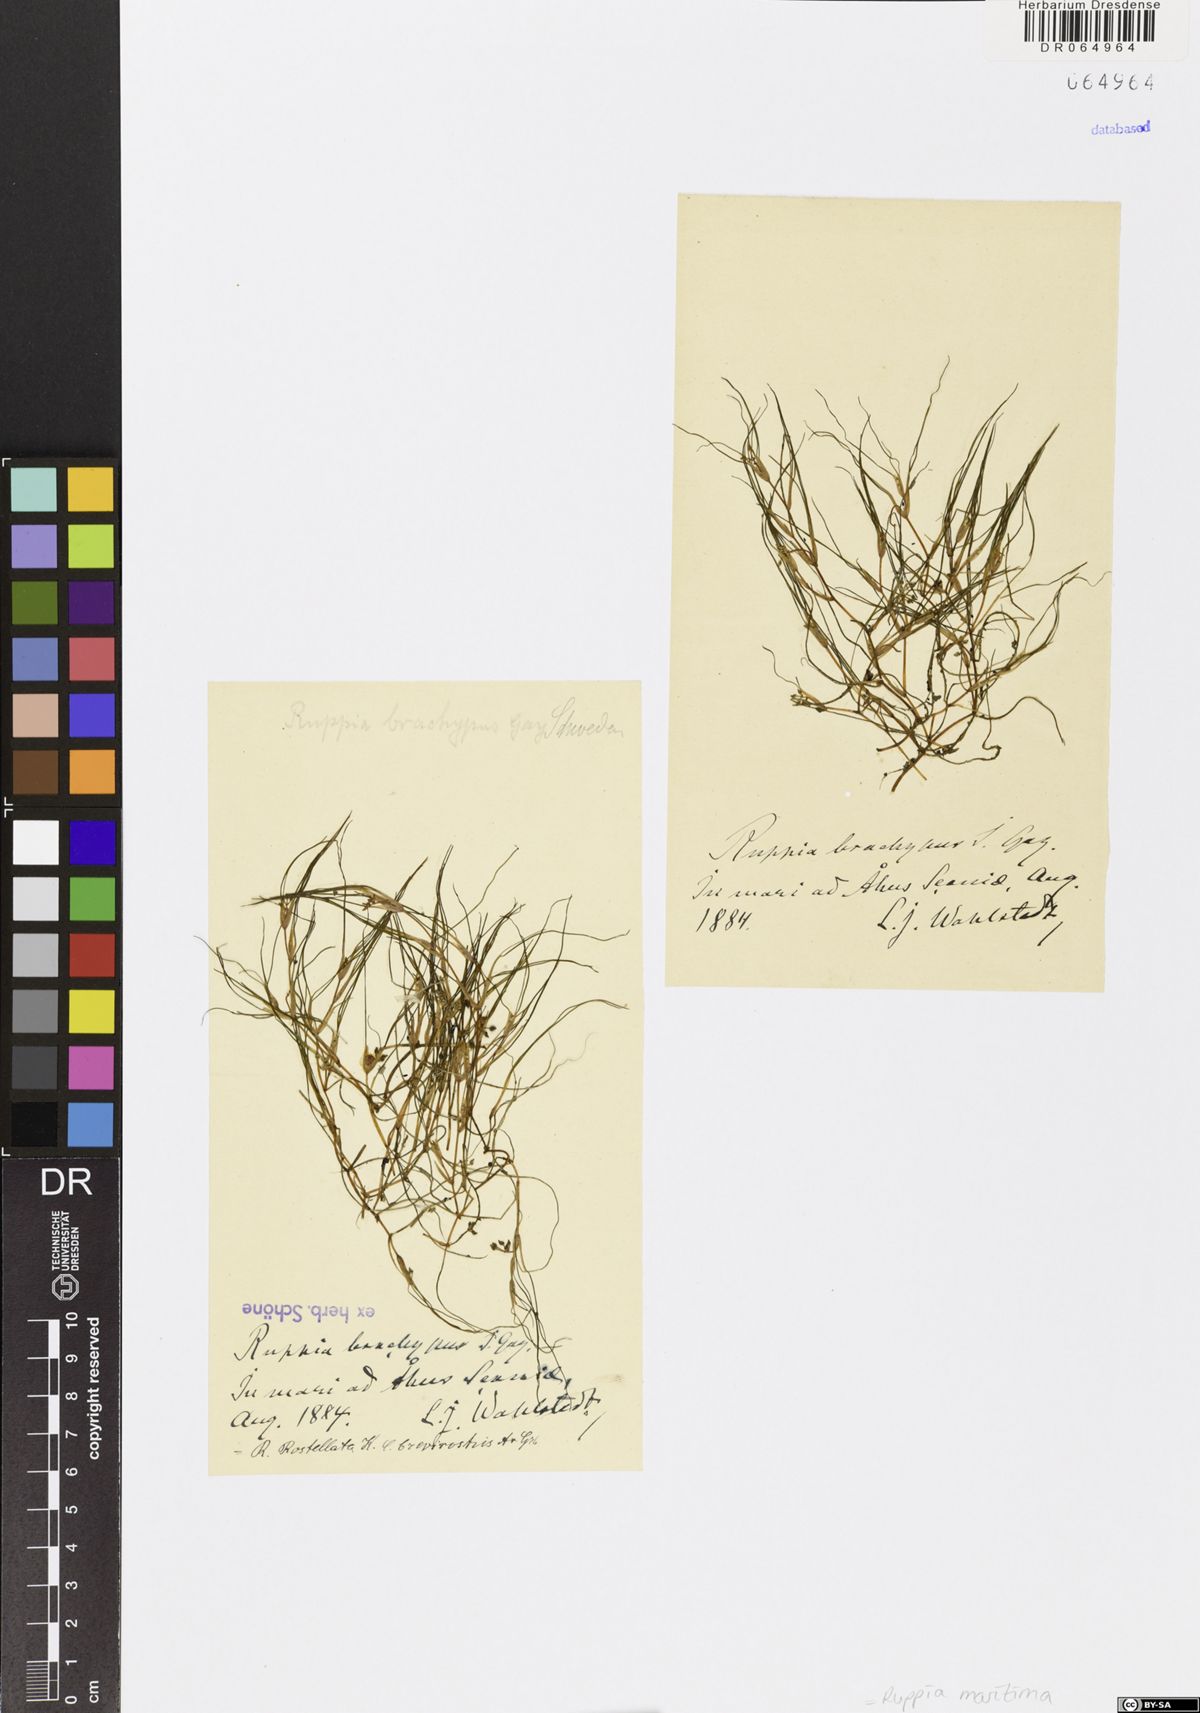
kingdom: Plantae
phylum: Tracheophyta
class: Liliopsida
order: Alismatales
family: Ruppiaceae
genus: Ruppia
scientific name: Ruppia maritima
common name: Beaked tasselweed
